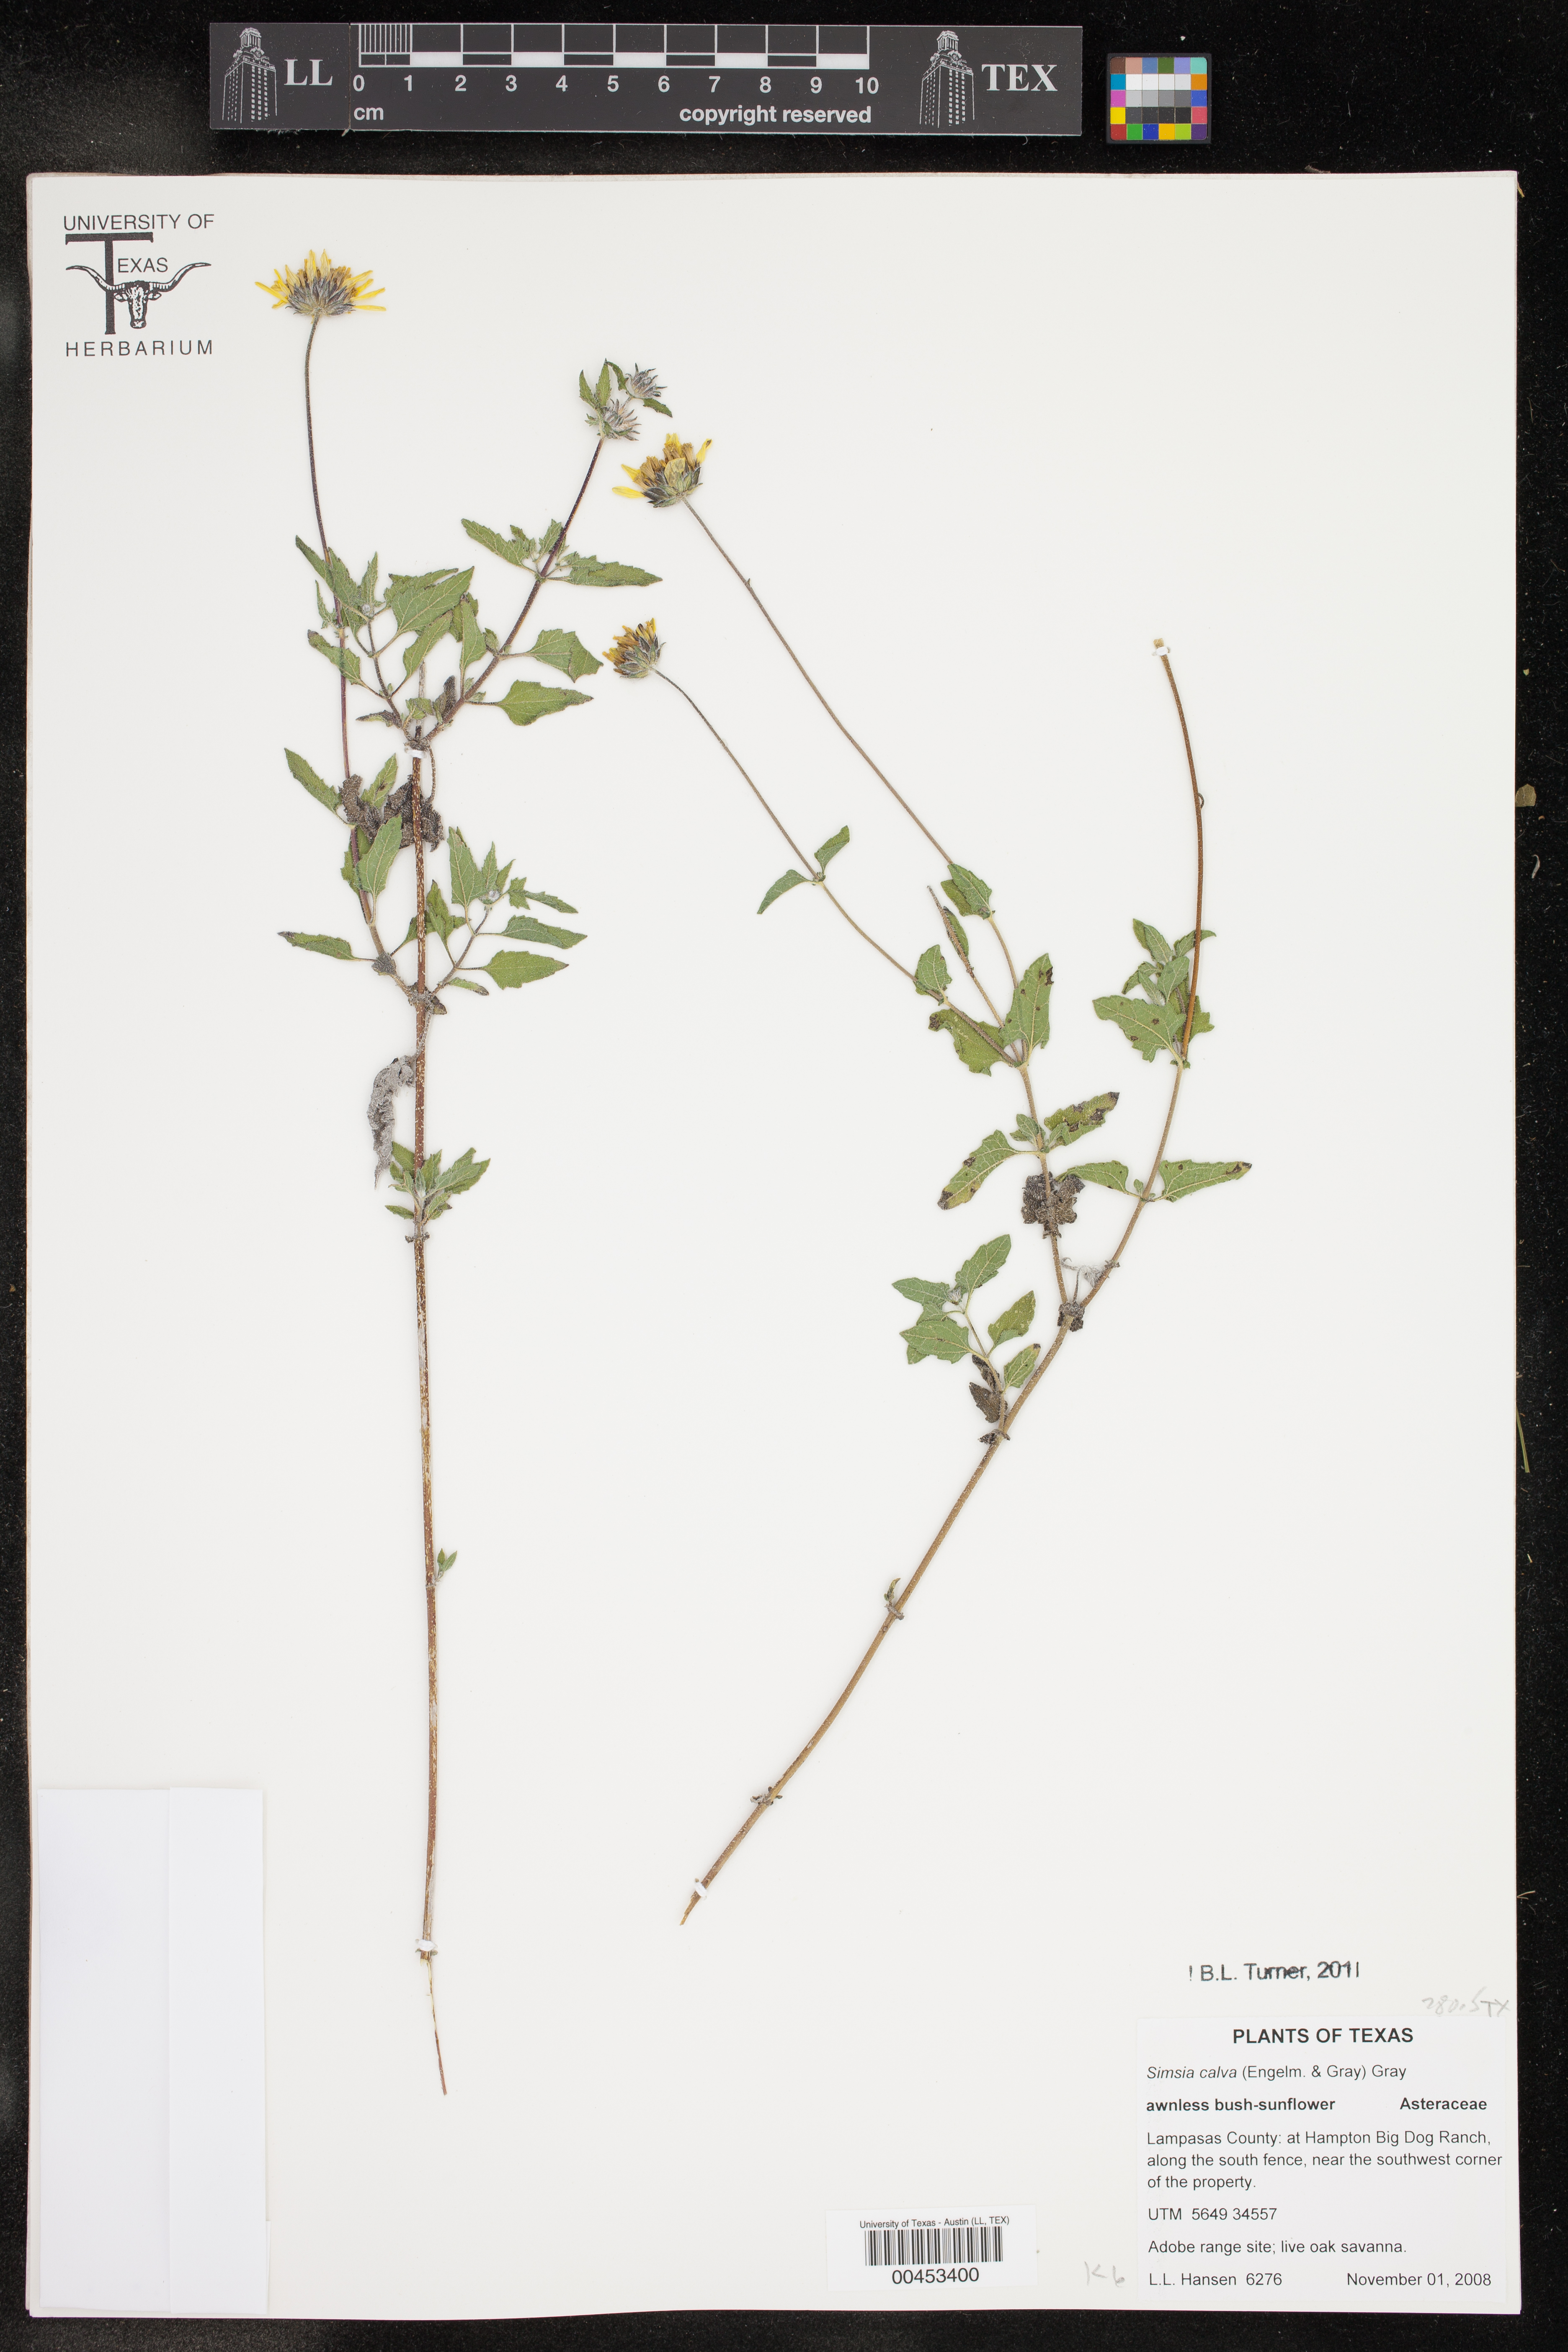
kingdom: Plantae
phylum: Tracheophyta
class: Magnoliopsida
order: Asterales
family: Asteraceae
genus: Simsia
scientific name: Simsia calva
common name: Awnless bush-sunflower
